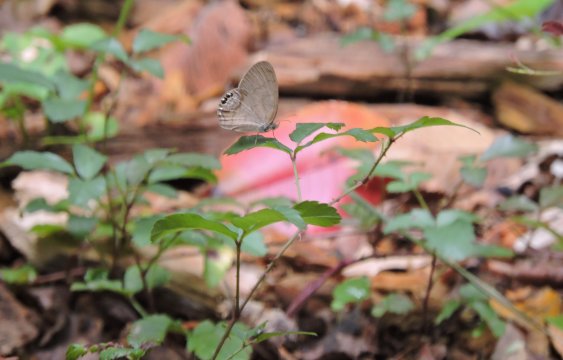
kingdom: Animalia
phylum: Arthropoda
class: Insecta
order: Lepidoptera
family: Nymphalidae
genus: Euptychia
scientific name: Euptychia cornelius
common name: Gemmed Satyr
